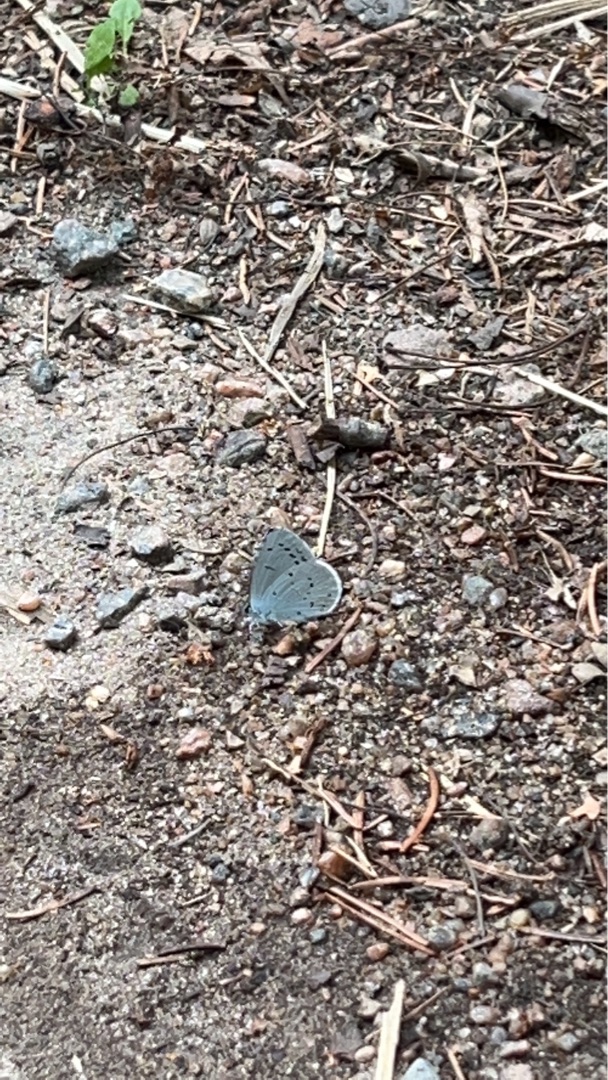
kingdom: Animalia
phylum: Arthropoda
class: Insecta
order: Lepidoptera
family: Lycaenidae
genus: Celastrina
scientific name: Celastrina argiolus
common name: Skovblåfugl
